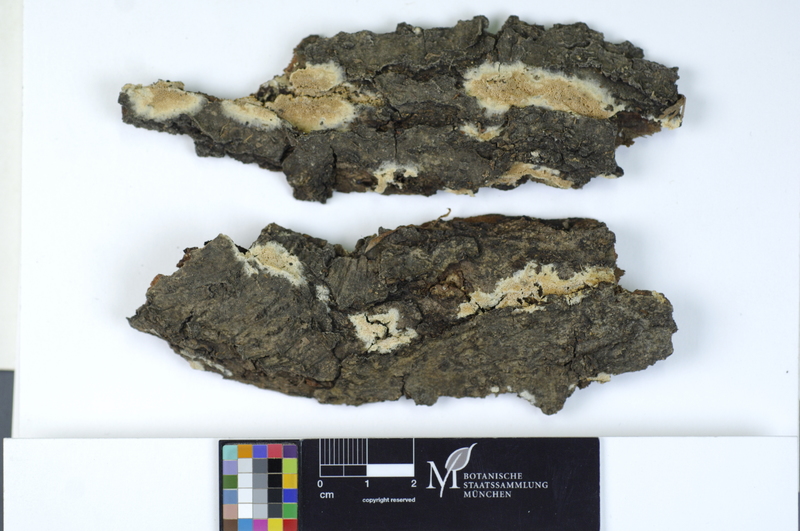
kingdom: Fungi
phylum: Basidiomycota
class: Agaricomycetes
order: Hymenochaetales
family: Schizoporaceae
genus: Xylodon
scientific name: Xylodon flaviporus
